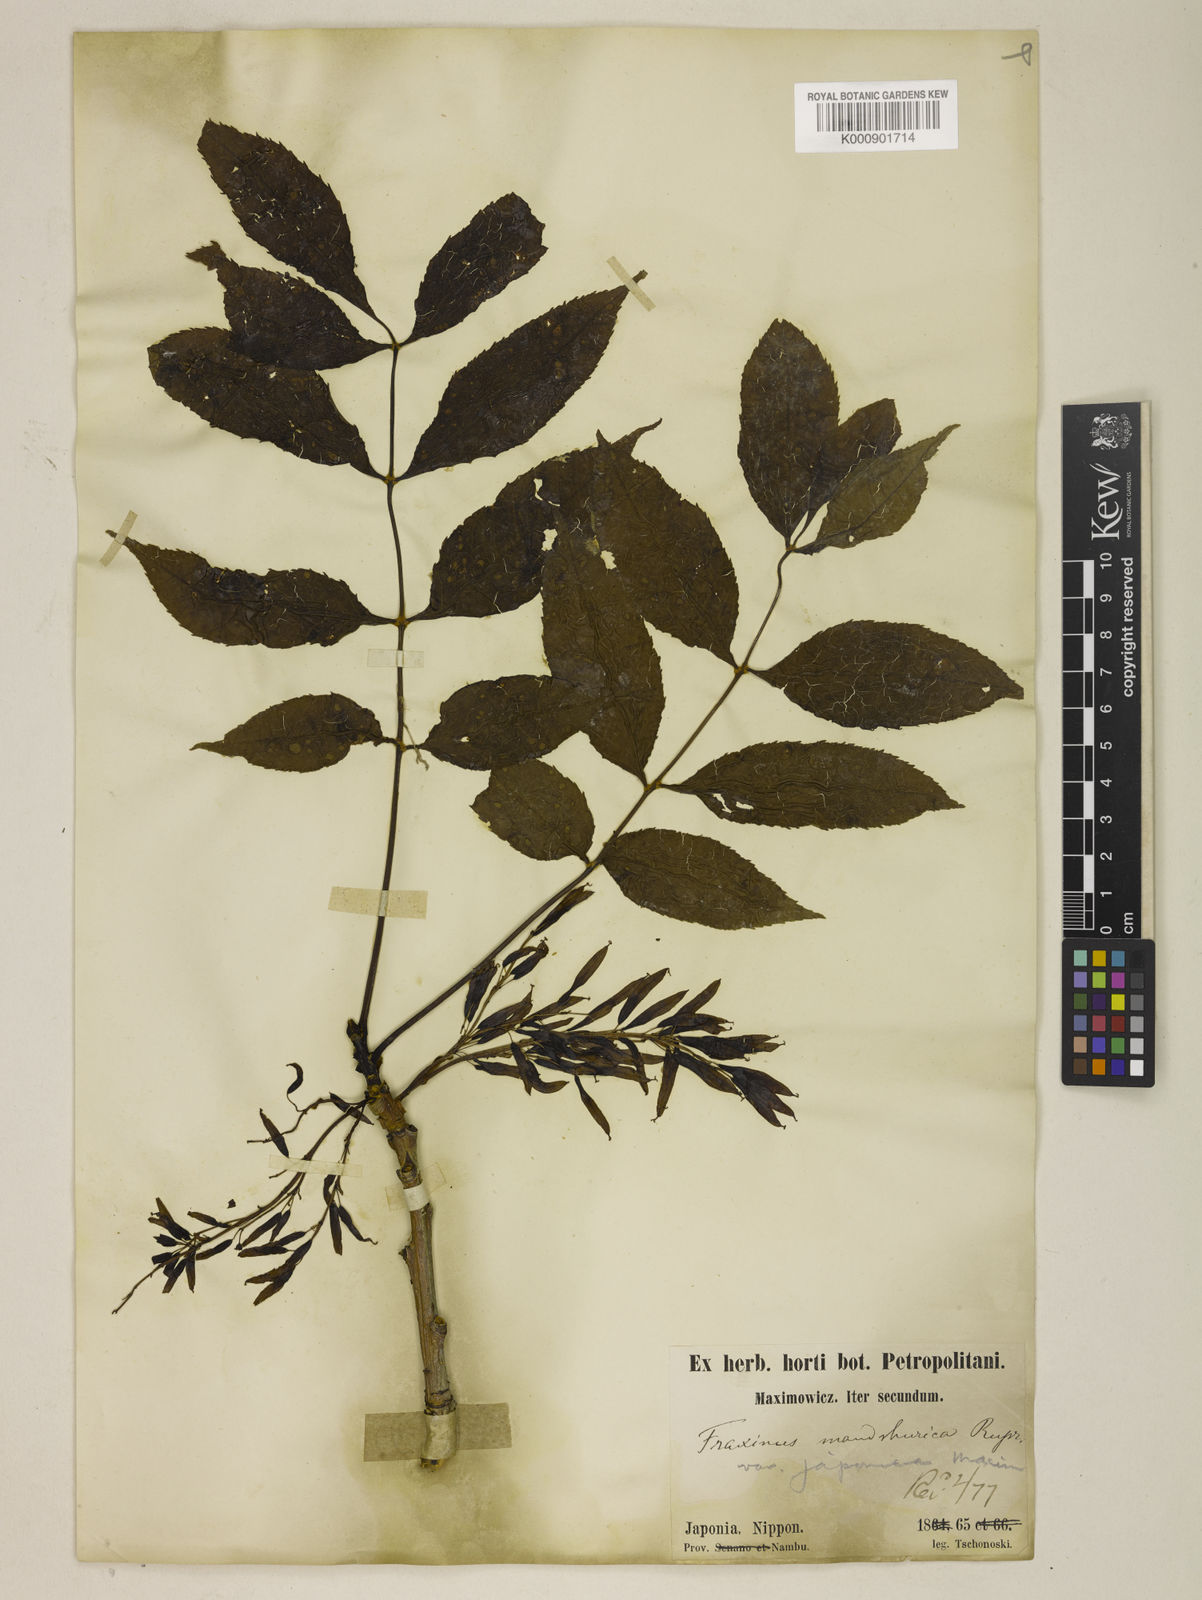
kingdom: Plantae
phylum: Tracheophyta
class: Magnoliopsida
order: Lamiales
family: Oleaceae
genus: Fraxinus
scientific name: Fraxinus nigra
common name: Black ash
